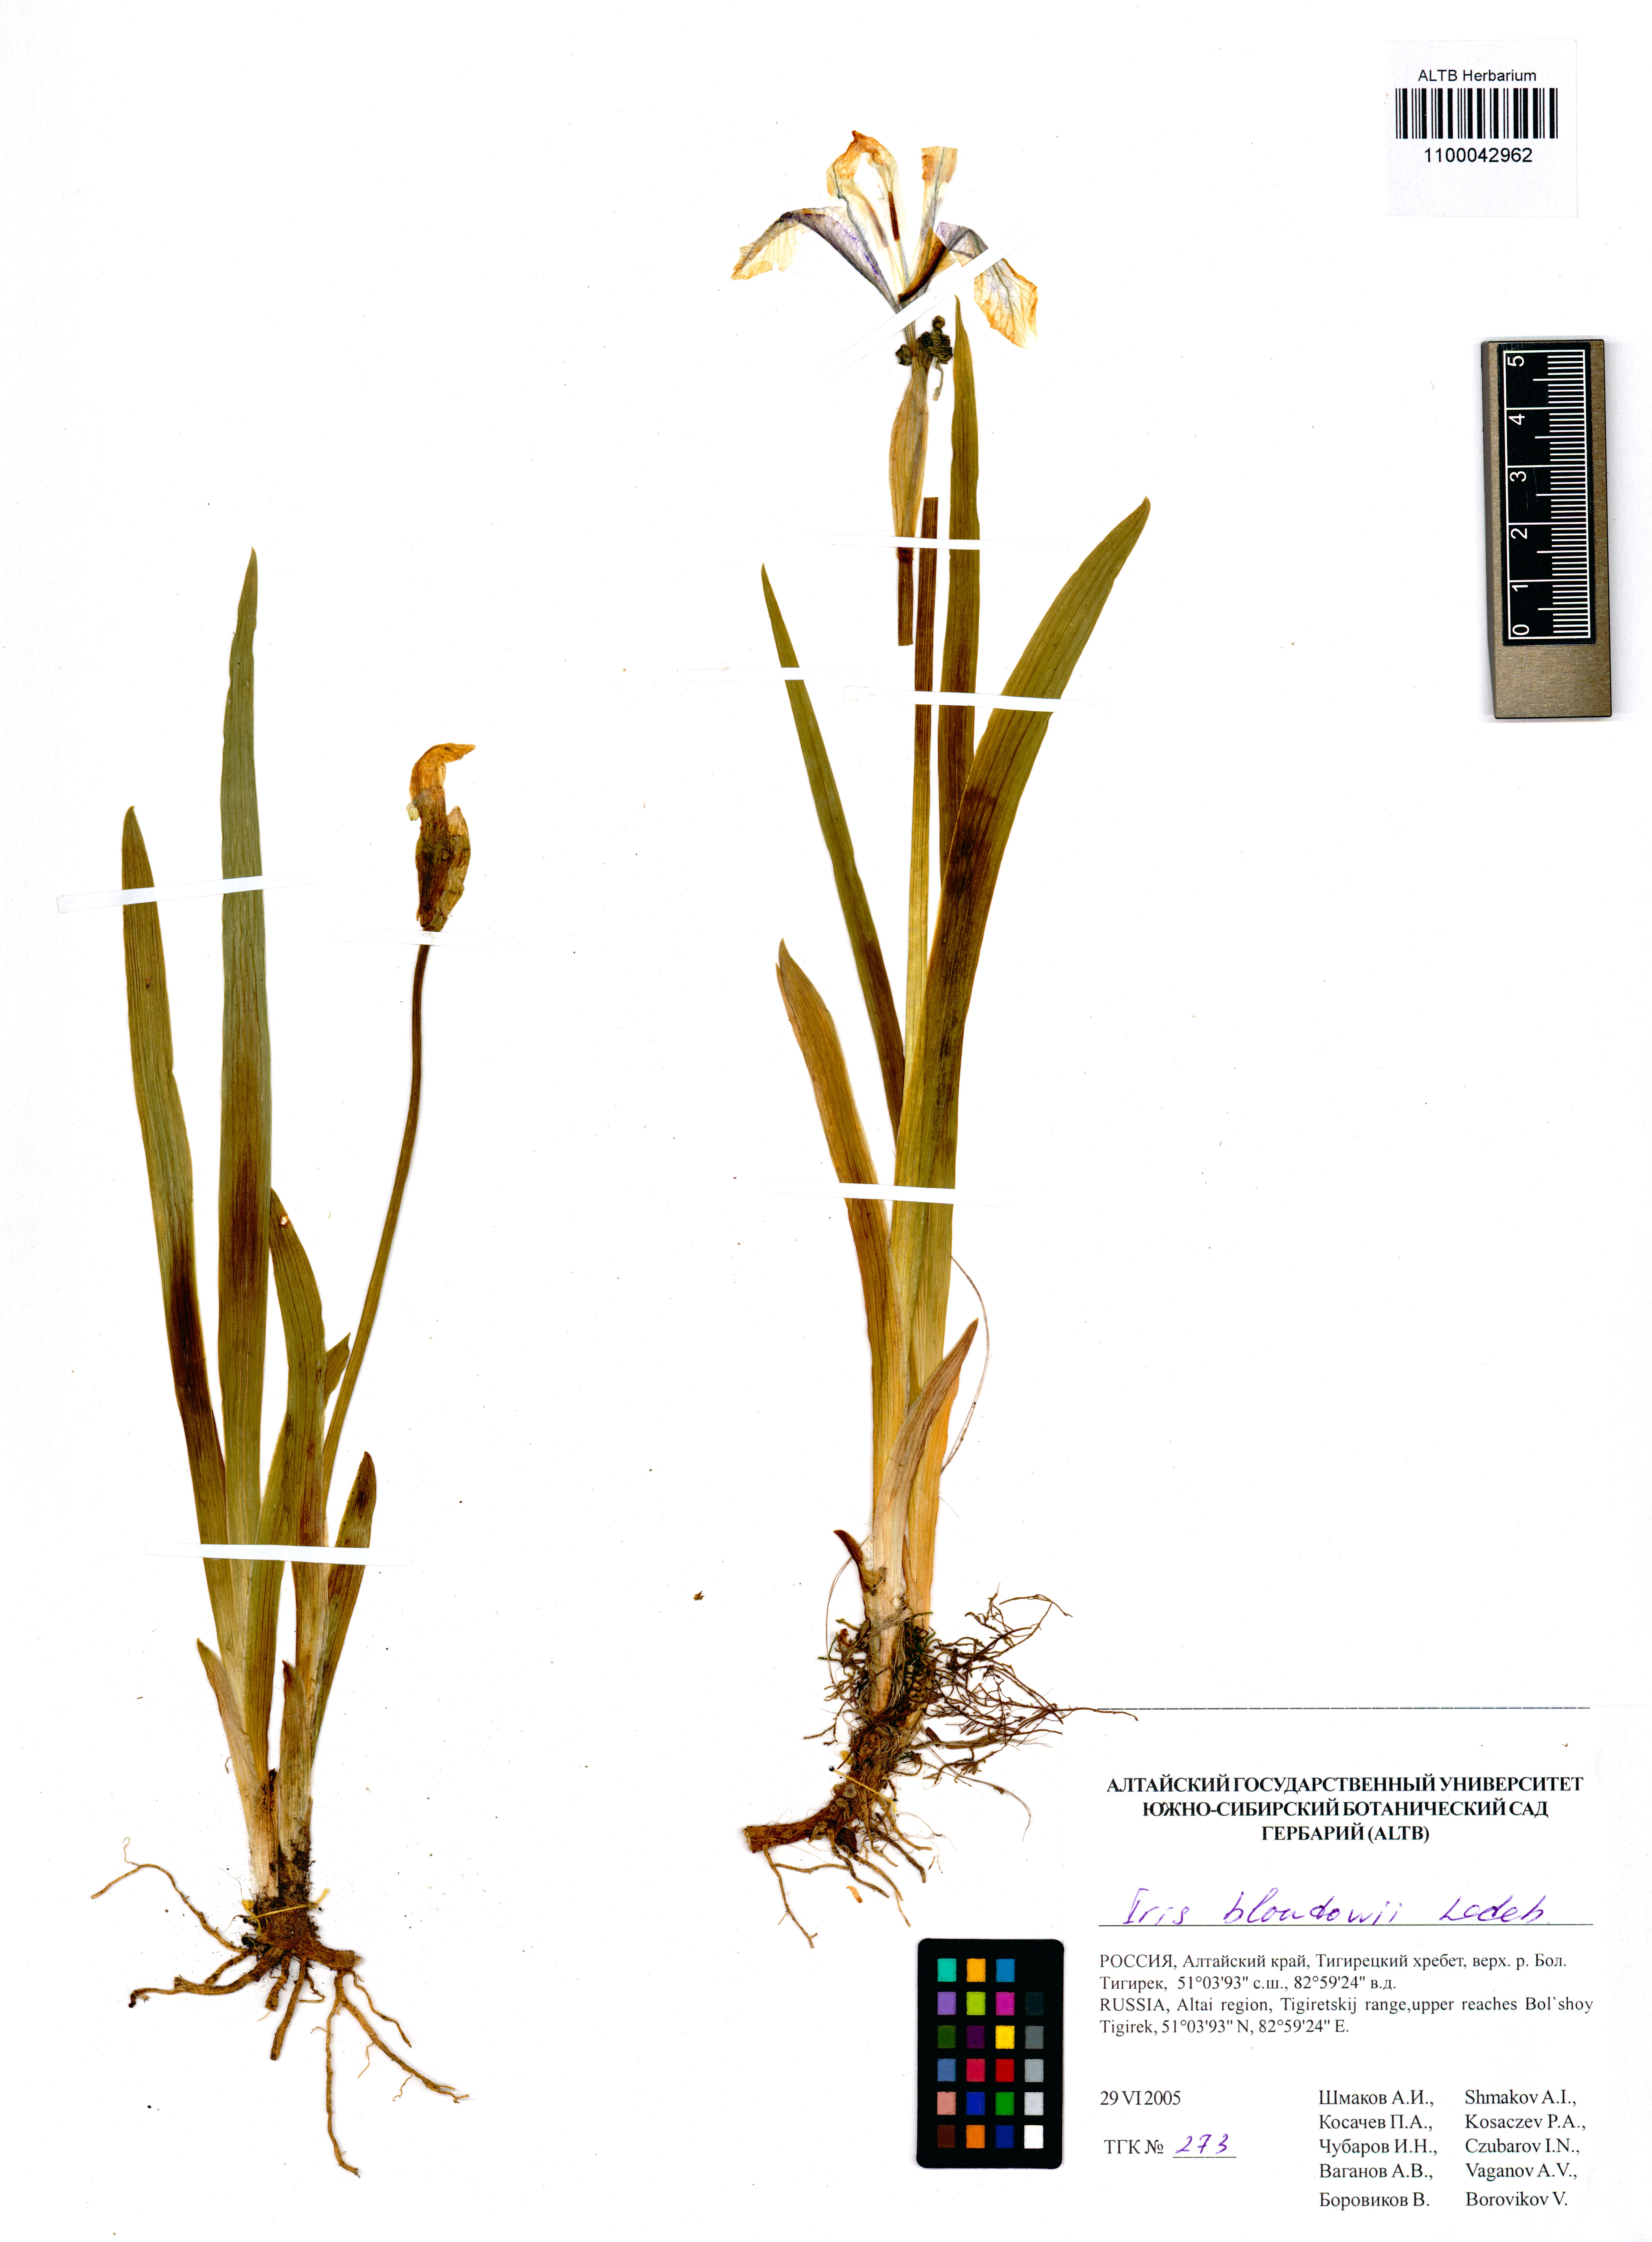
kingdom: Plantae
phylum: Tracheophyta
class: Liliopsida
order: Asparagales
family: Iridaceae
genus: Iris
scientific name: Iris bloudowii
